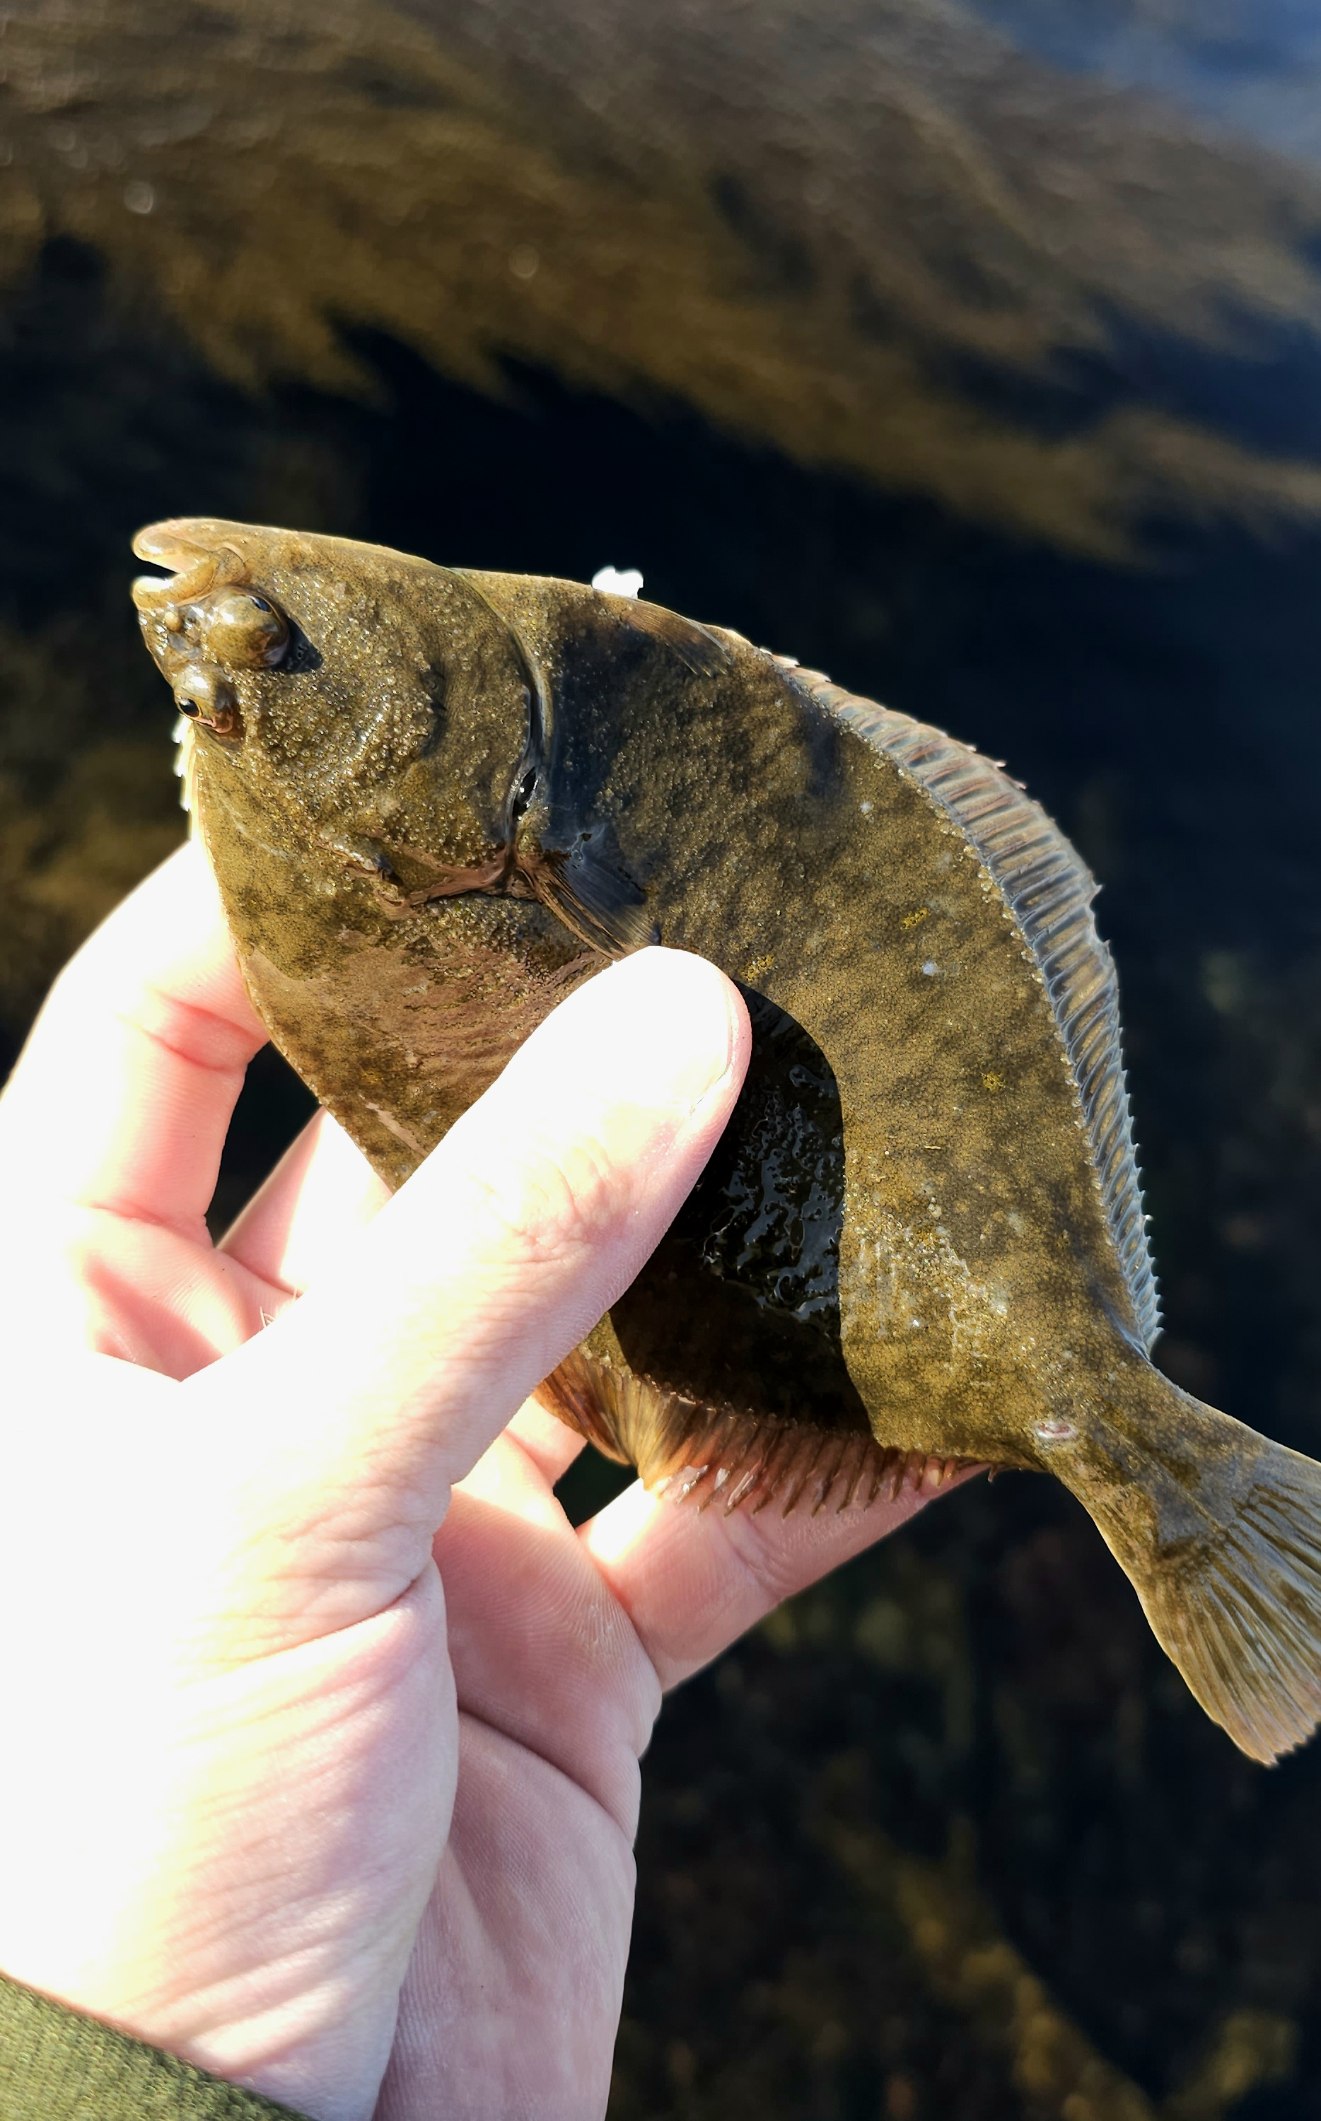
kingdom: Animalia
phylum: Chordata
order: Pleuronectiformes
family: Pleuronectidae
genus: Platichthys
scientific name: Platichthys flesus
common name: Skrubbe
